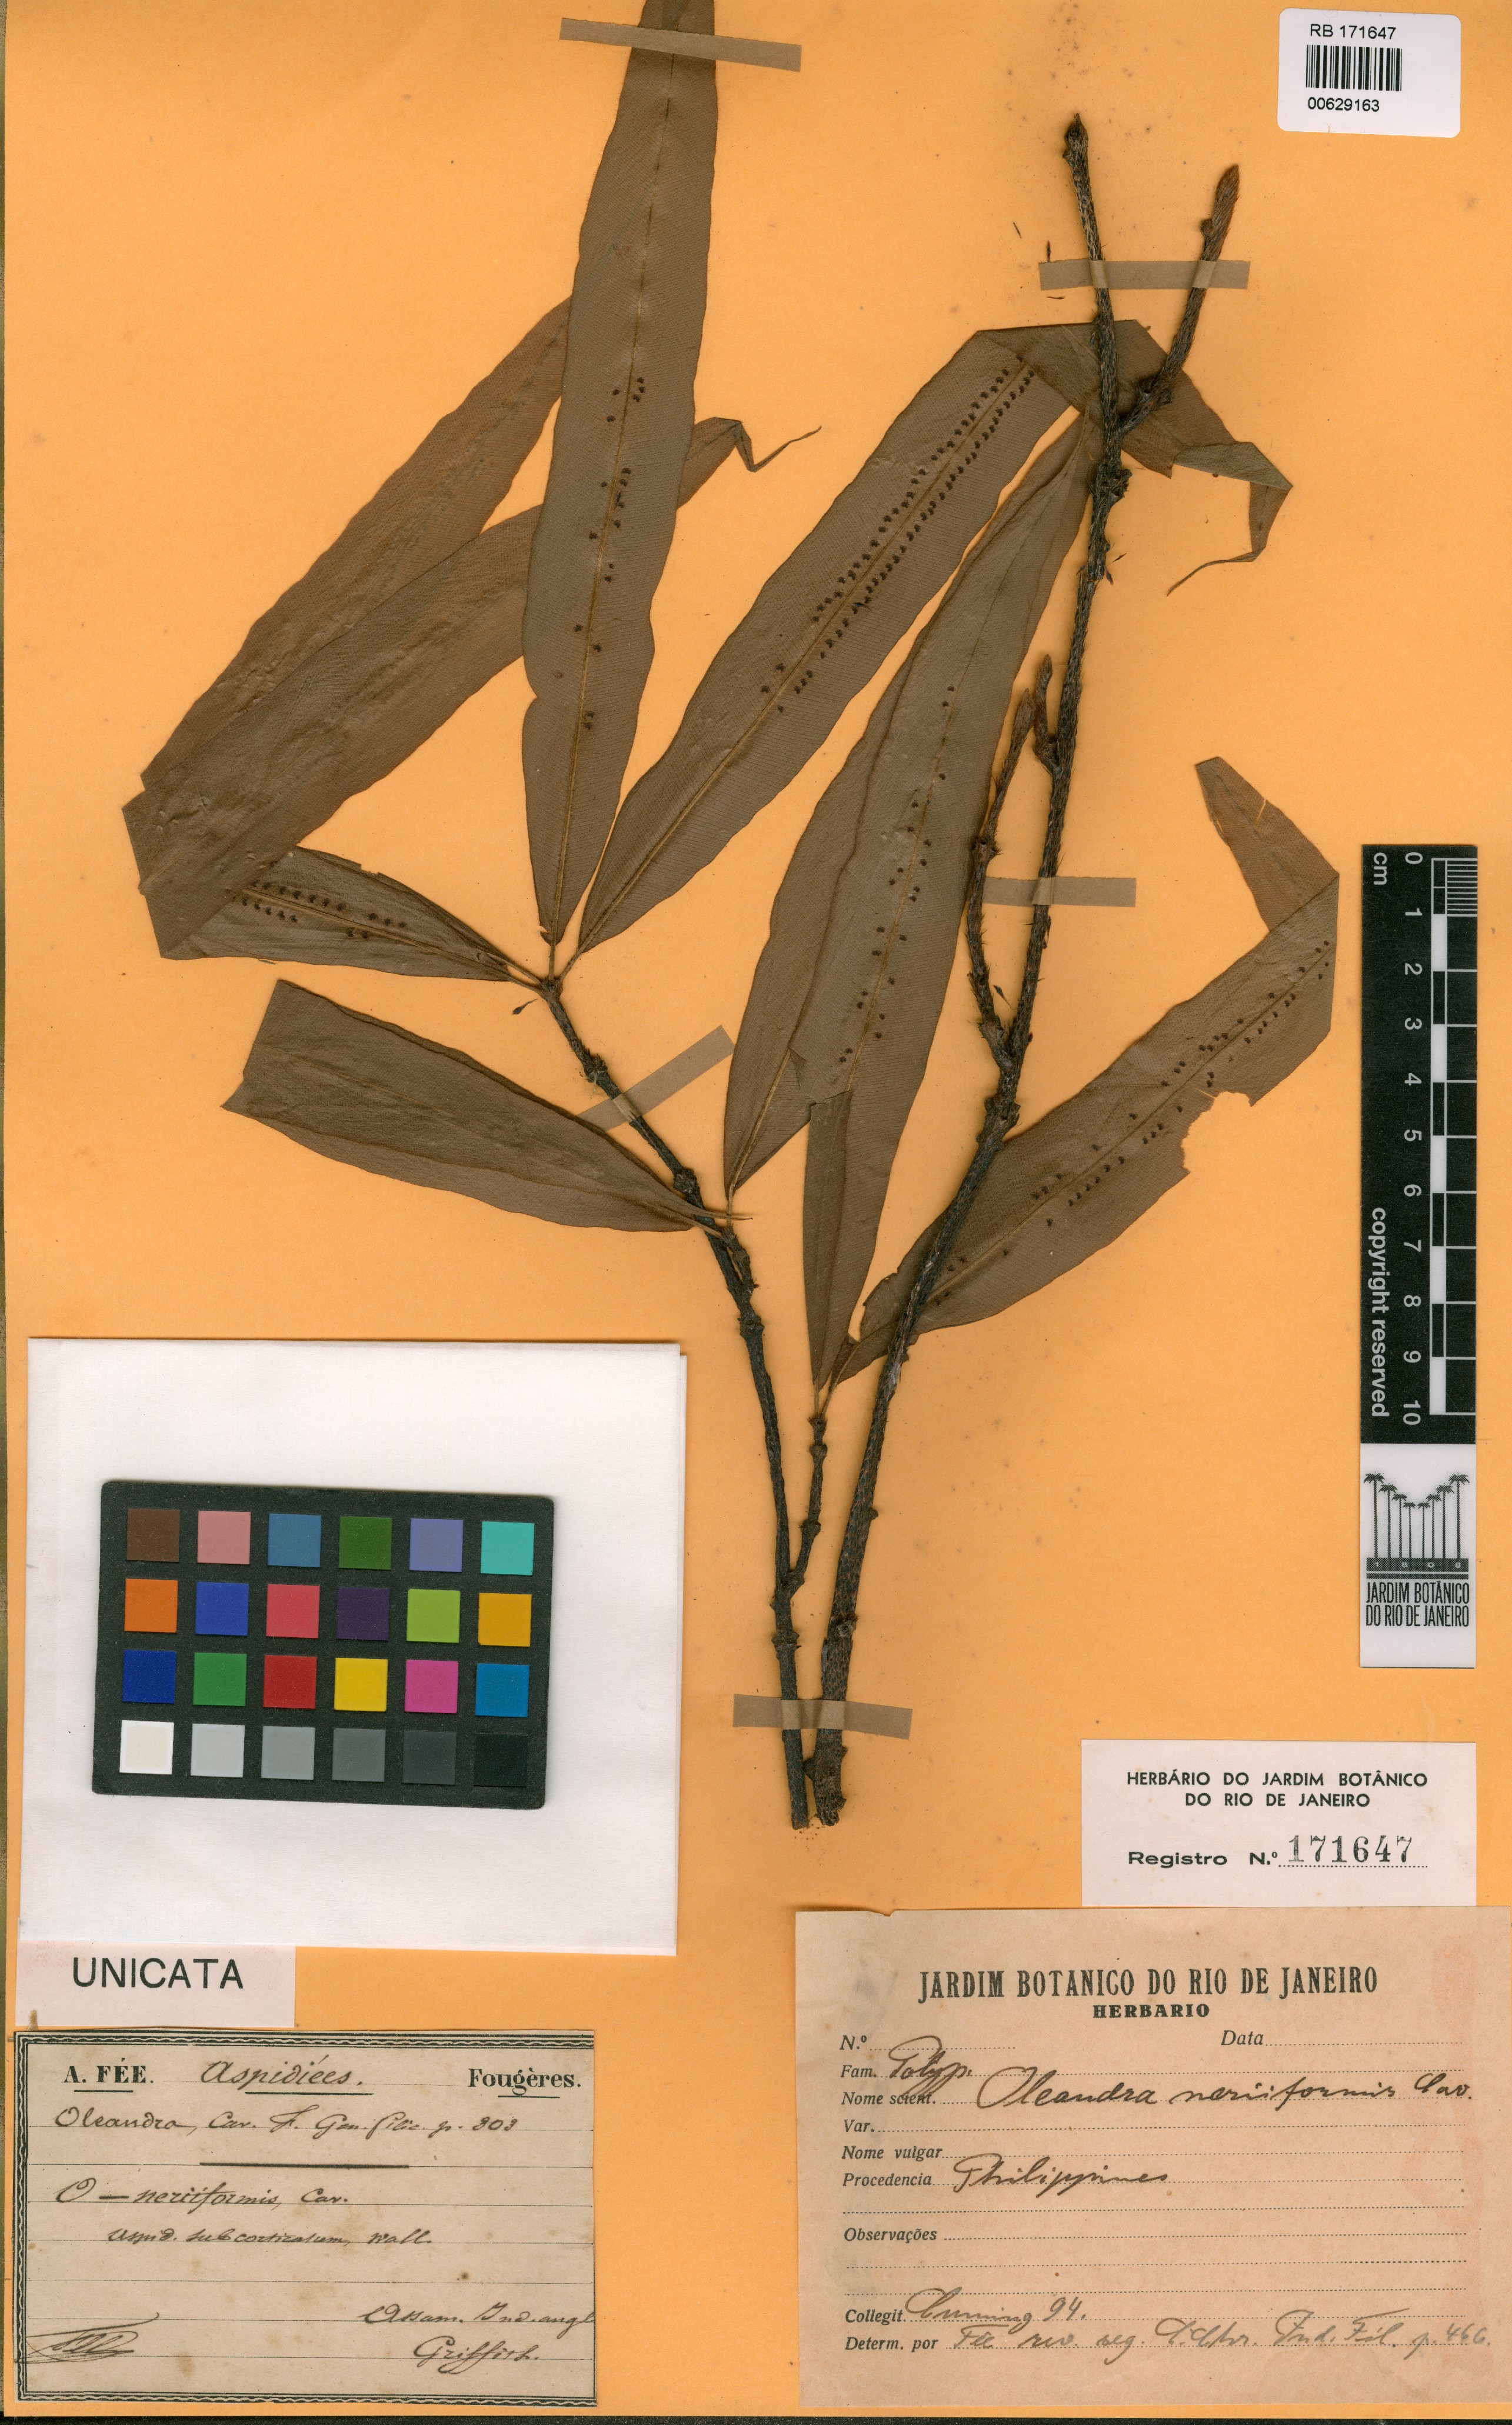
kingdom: Plantae
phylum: Tracheophyta
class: Polypodiopsida
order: Polypodiales
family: Oleandraceae
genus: Oleandra
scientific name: Oleandra neriiformis
